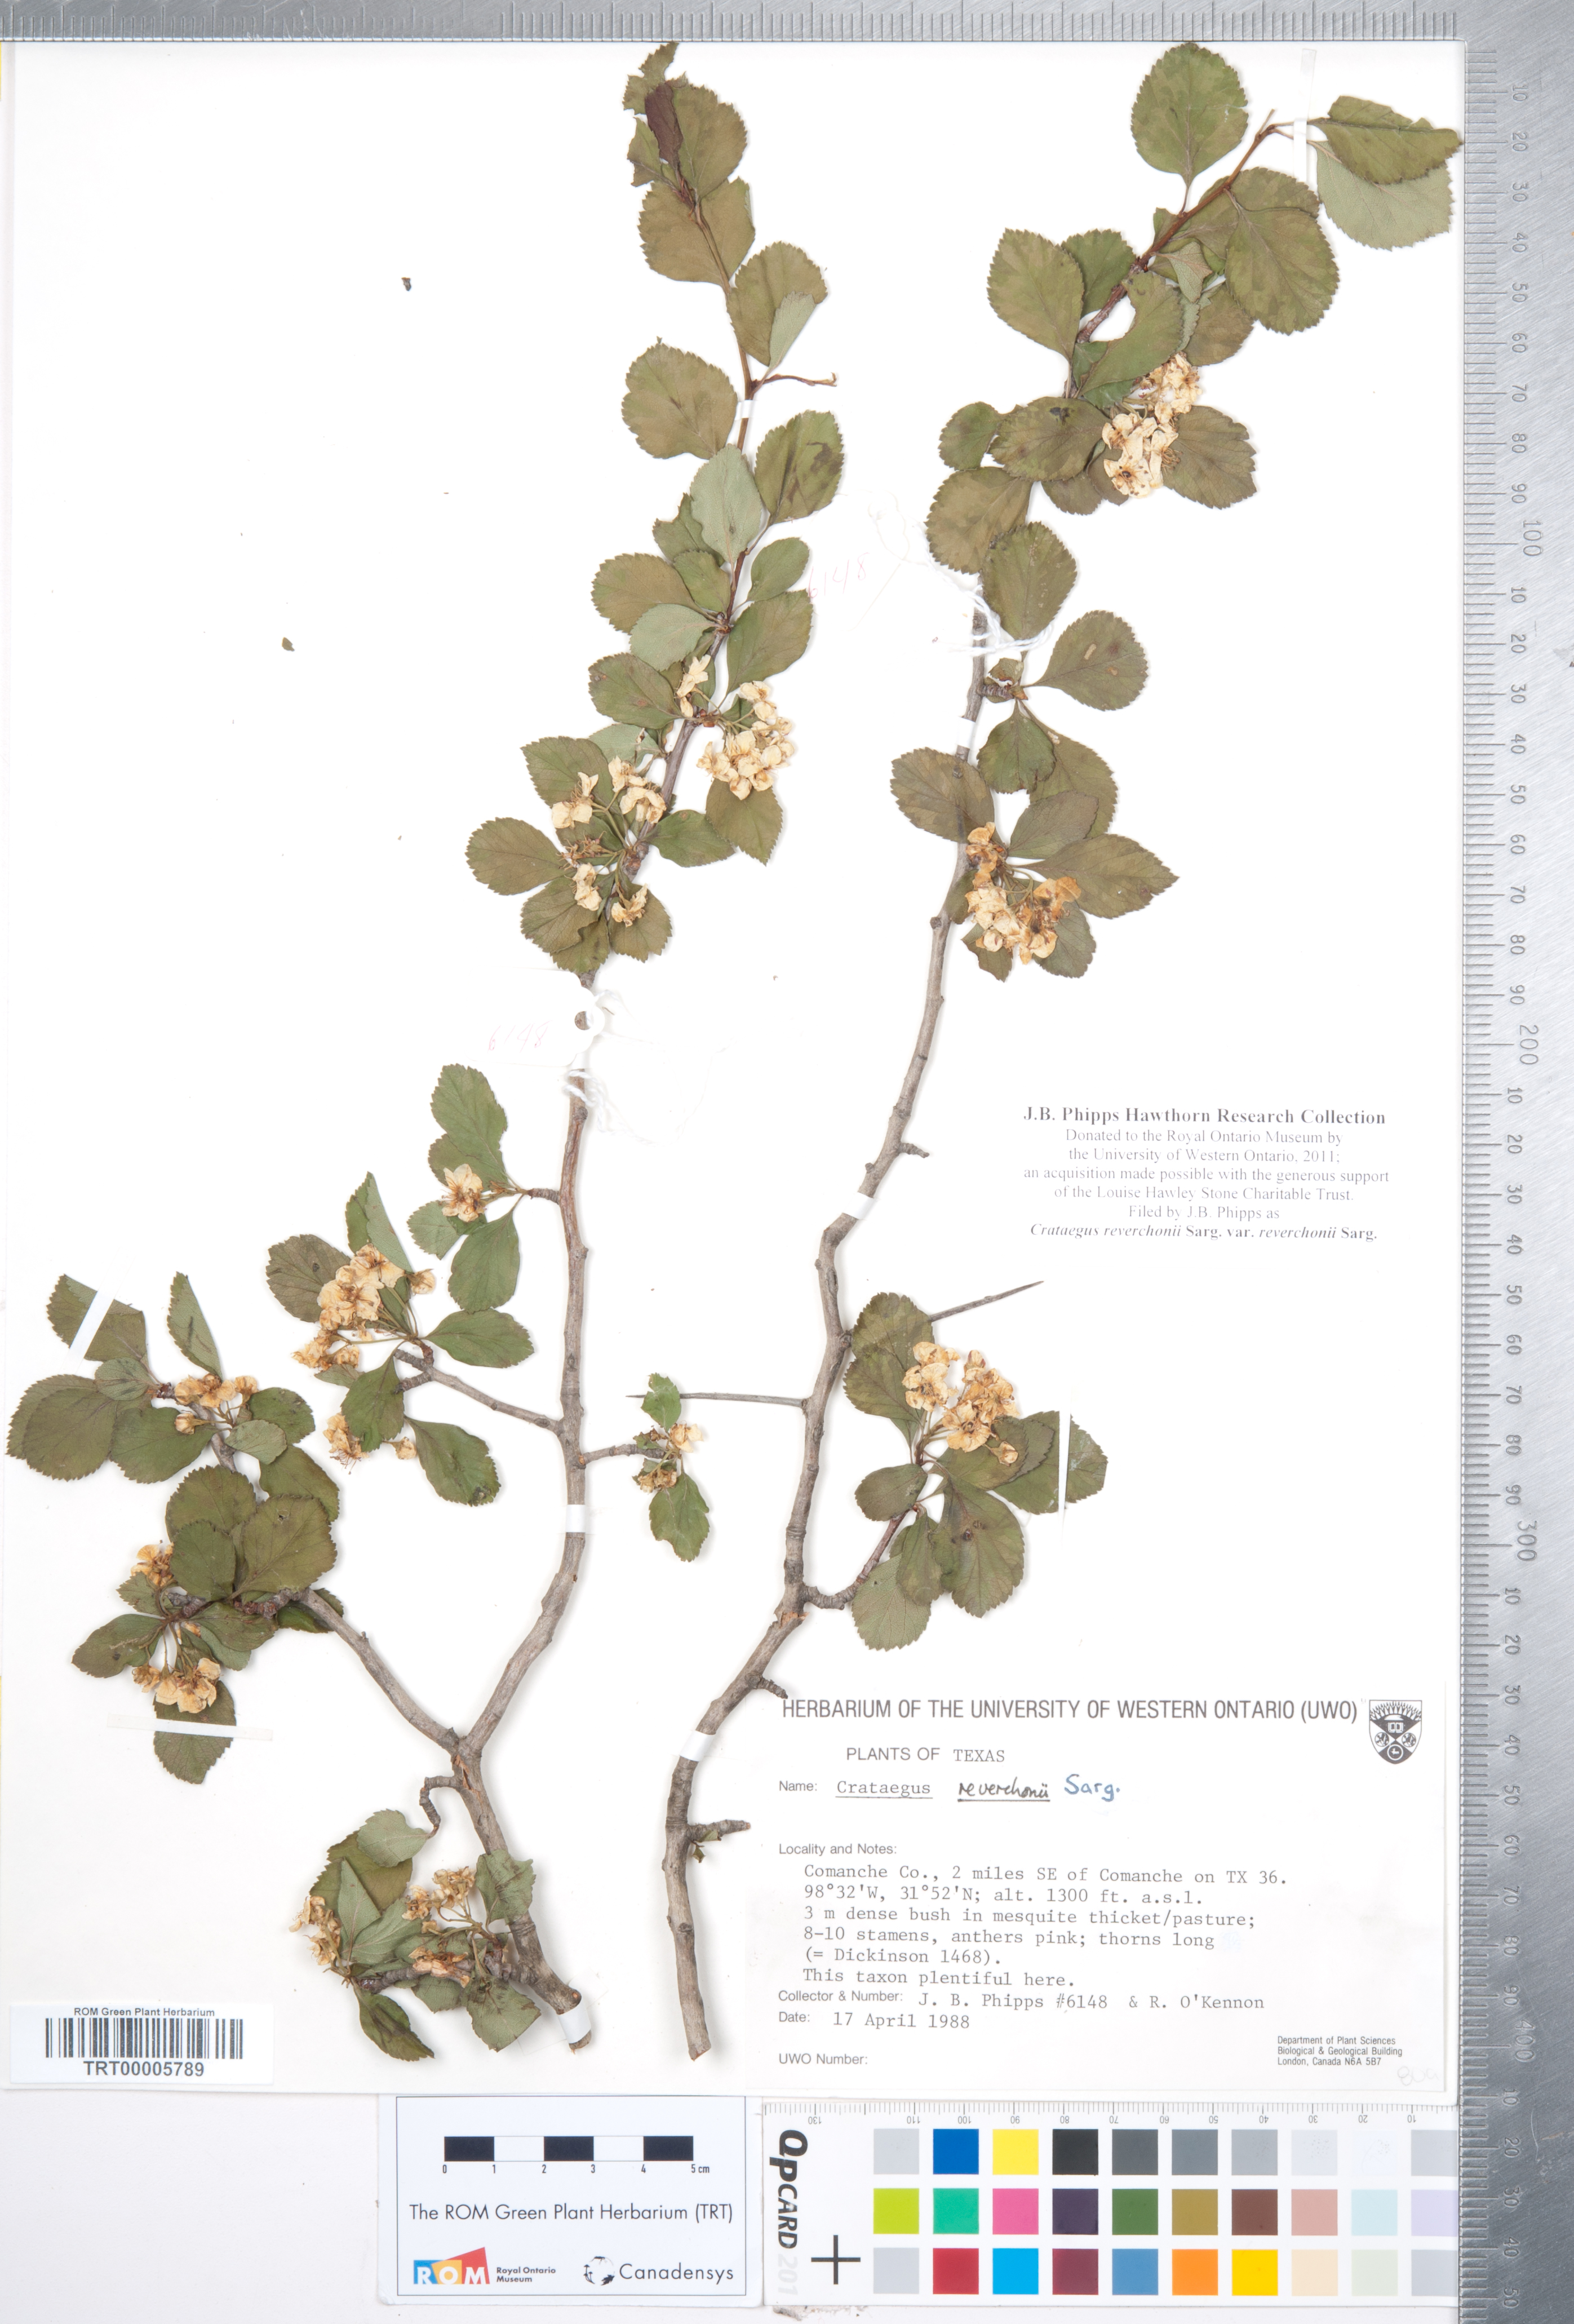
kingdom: Plantae
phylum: Tracheophyta
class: Magnoliopsida
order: Rosales
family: Rosaceae
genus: Crataegus
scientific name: Crataegus reverchonii
